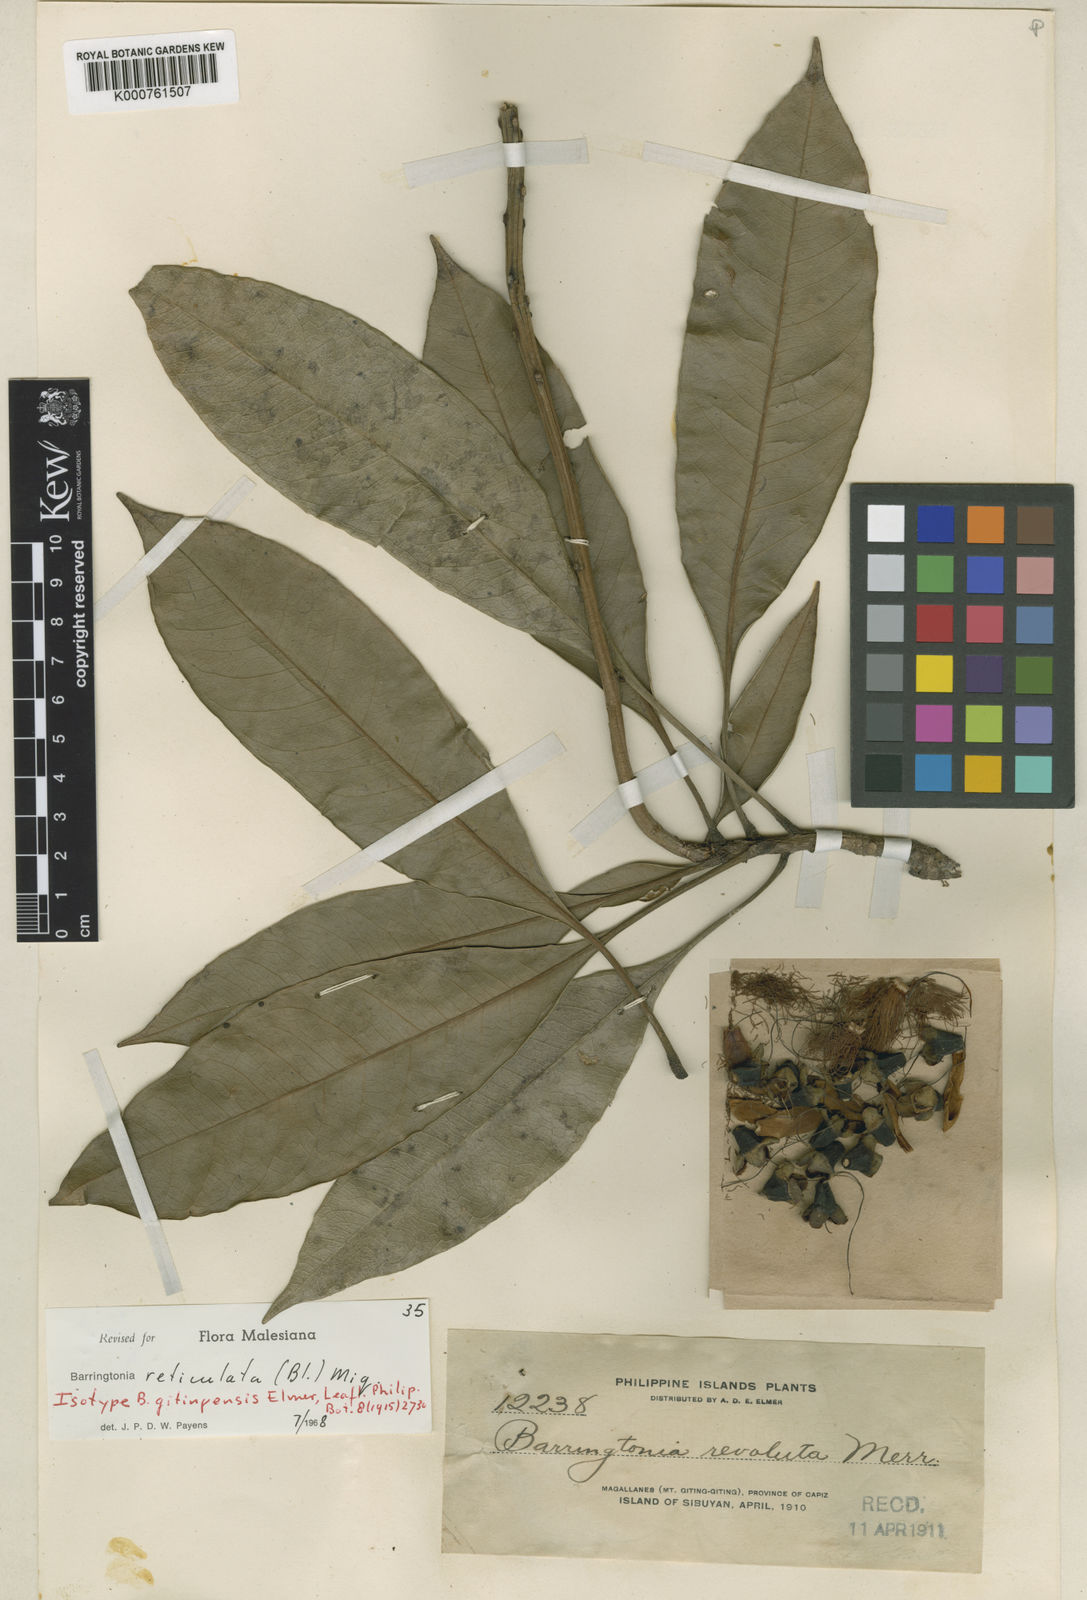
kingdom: Plantae
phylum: Tracheophyta
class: Magnoliopsida
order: Ericales
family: Lecythidaceae
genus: Barringtonia
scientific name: Barringtonia reticulata
